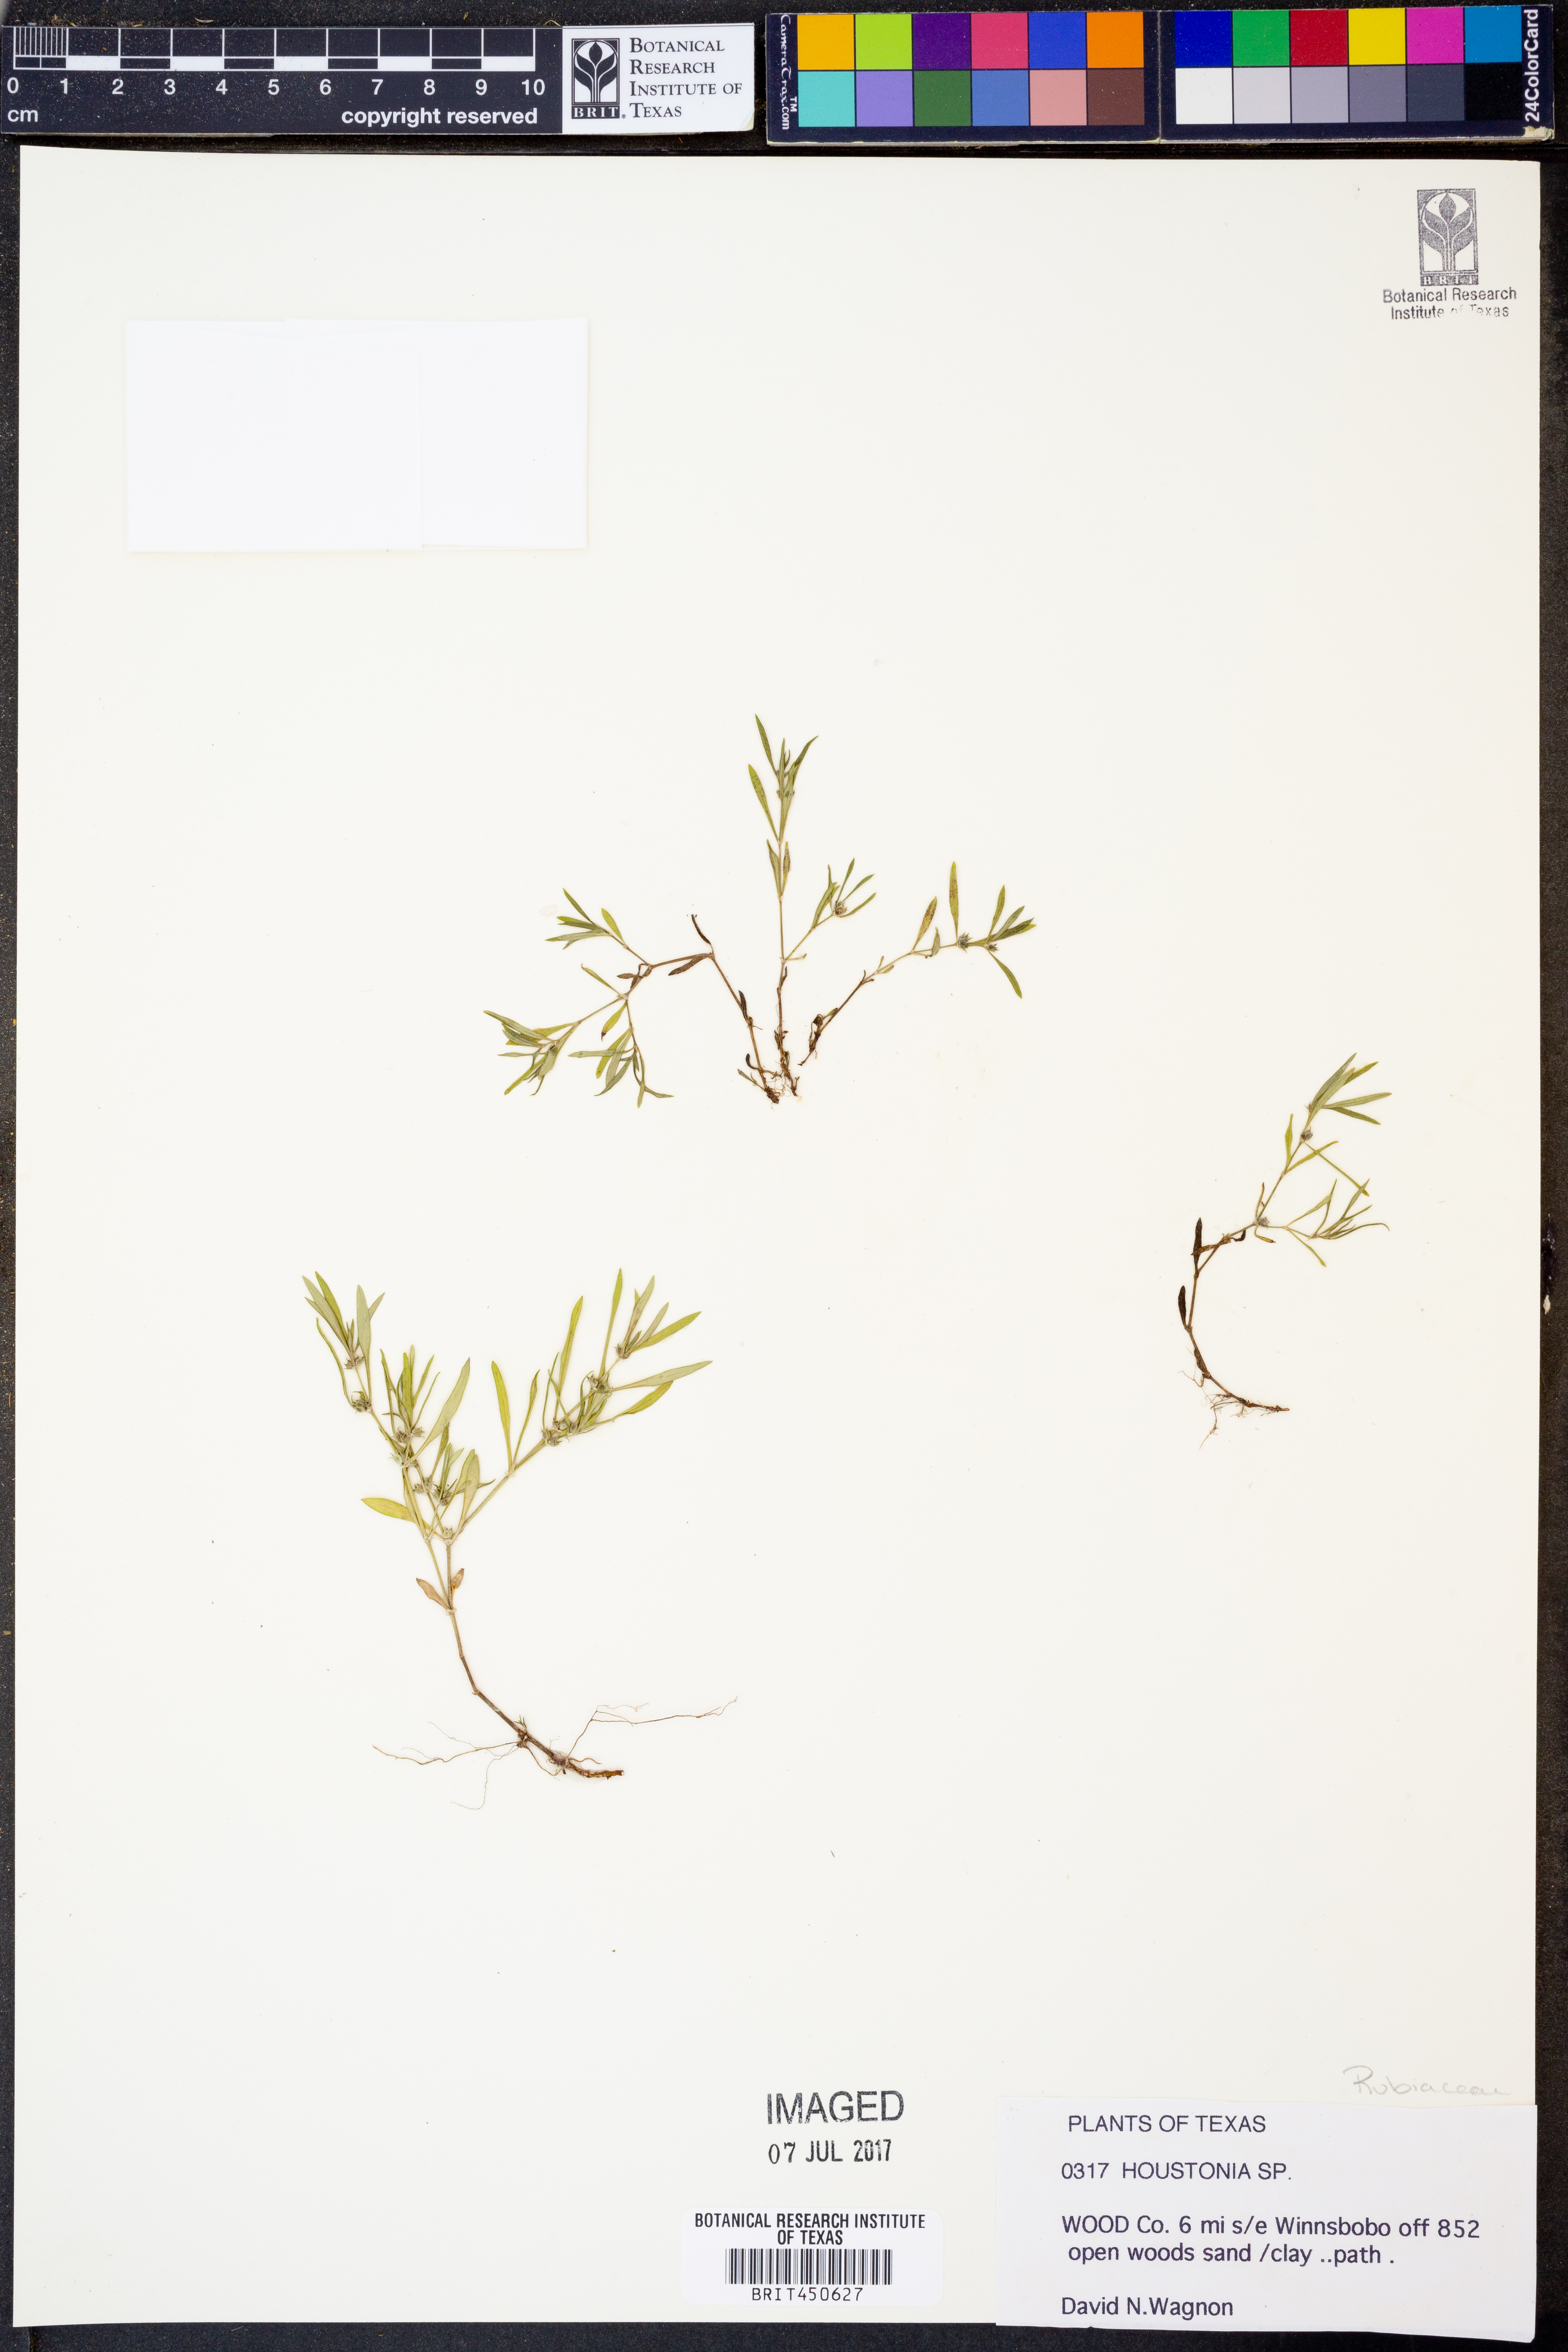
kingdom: Plantae
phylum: Tracheophyta
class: Magnoliopsida
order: Gentianales
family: Rubiaceae
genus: Houstonia
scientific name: Houstonia
